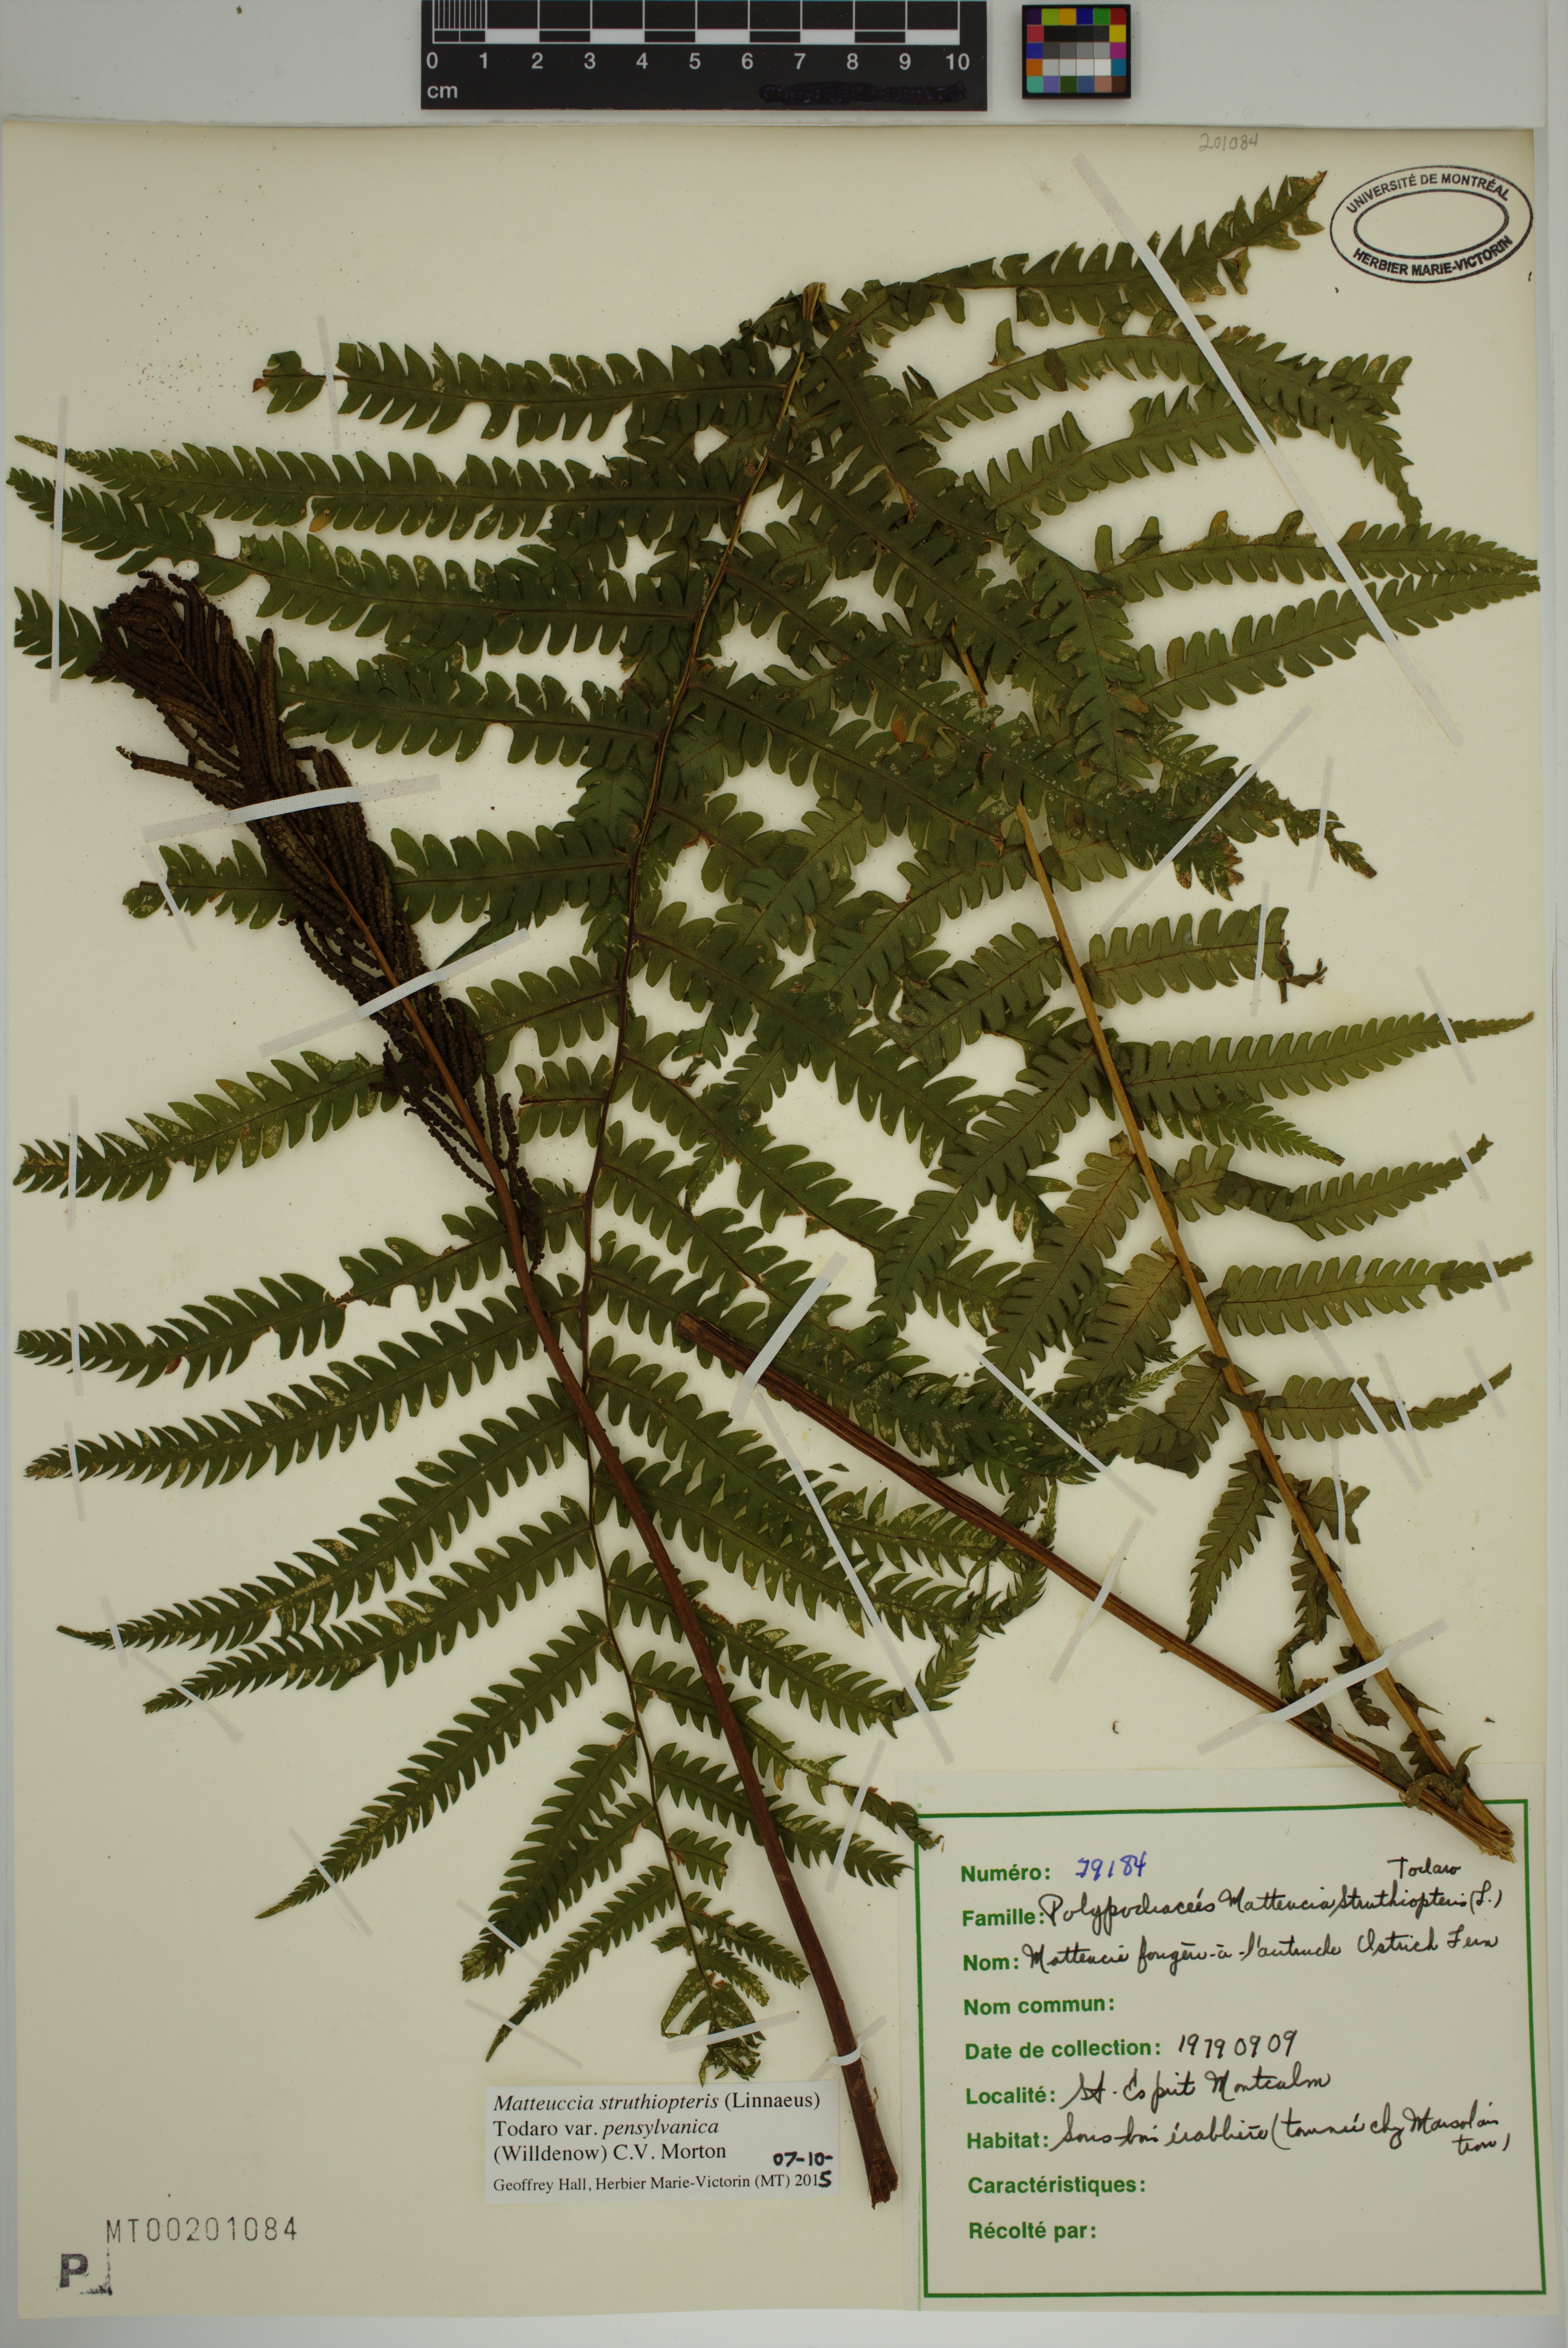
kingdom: Plantae
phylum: Tracheophyta
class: Polypodiopsida
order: Polypodiales
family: Onocleaceae
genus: Matteuccia
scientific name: Matteuccia pensylvanica
